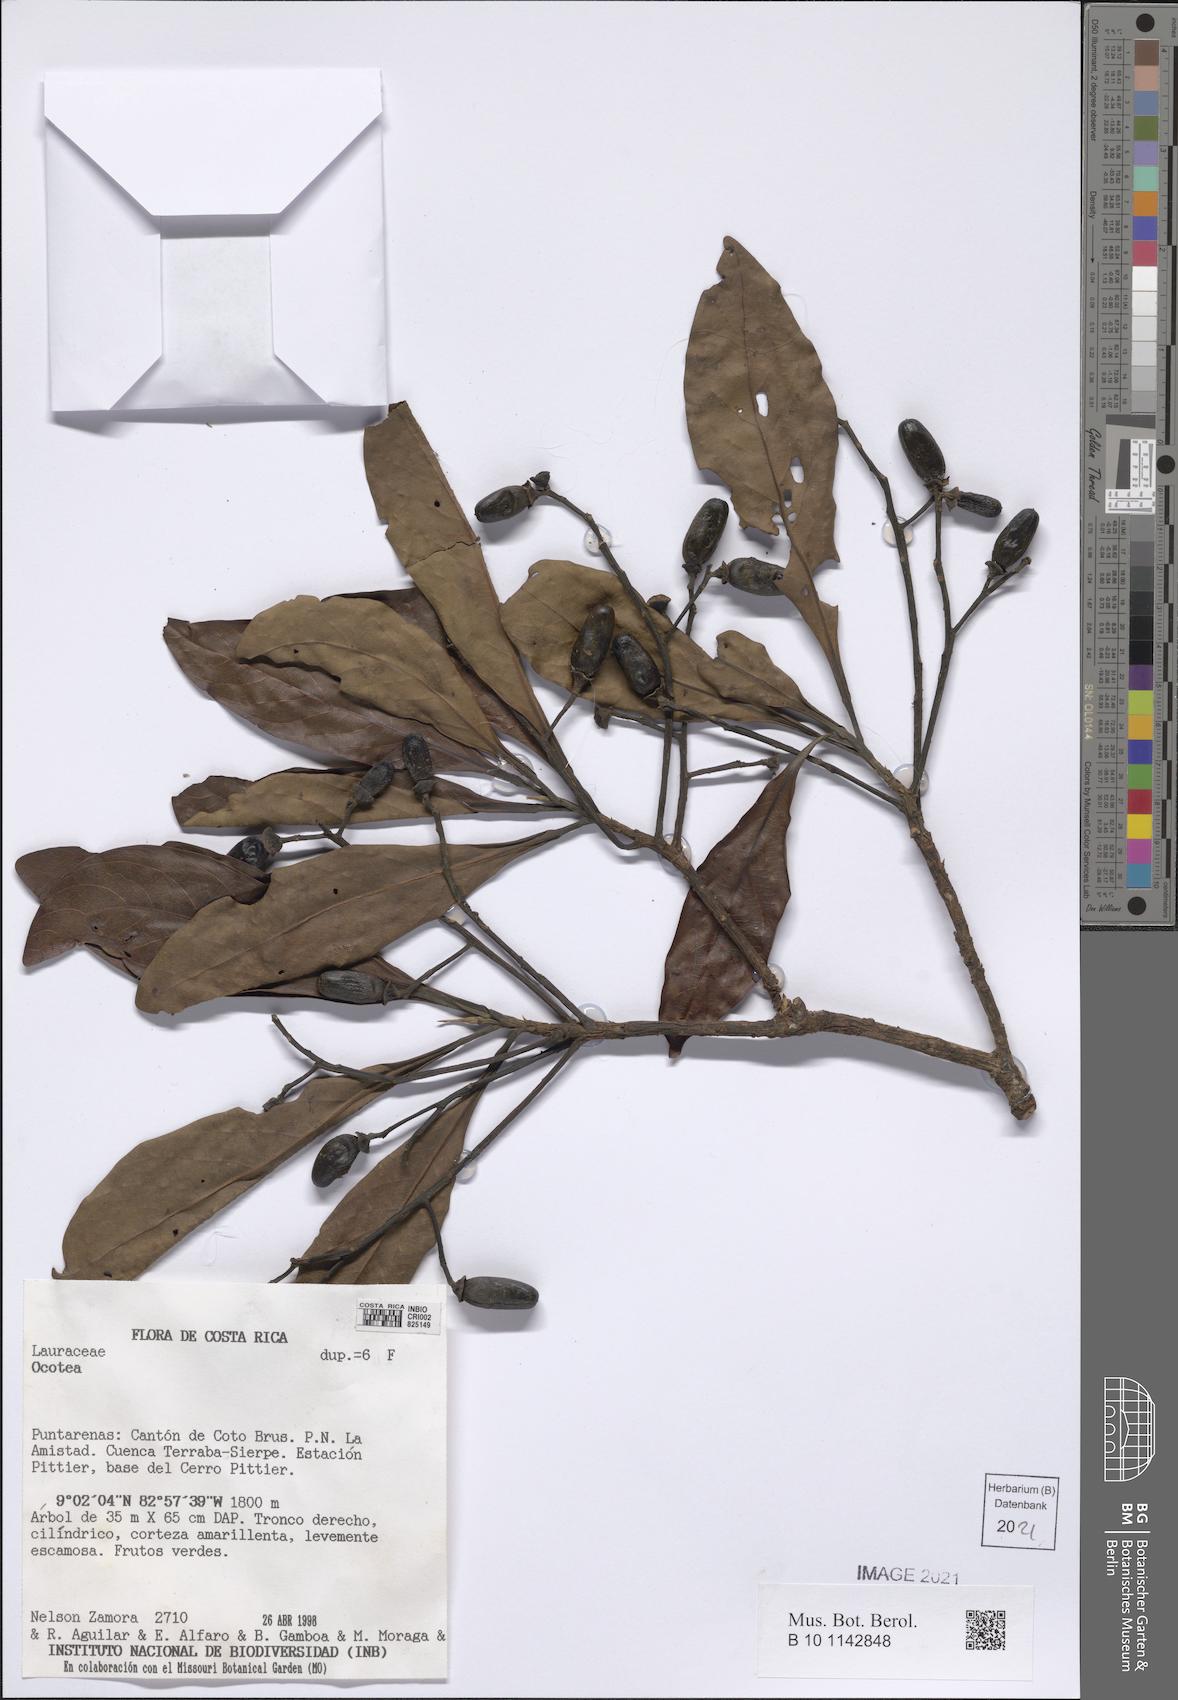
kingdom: Plantae
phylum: Tracheophyta
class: Magnoliopsida
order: Laurales
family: Lauraceae
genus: Ocotea
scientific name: Ocotea
